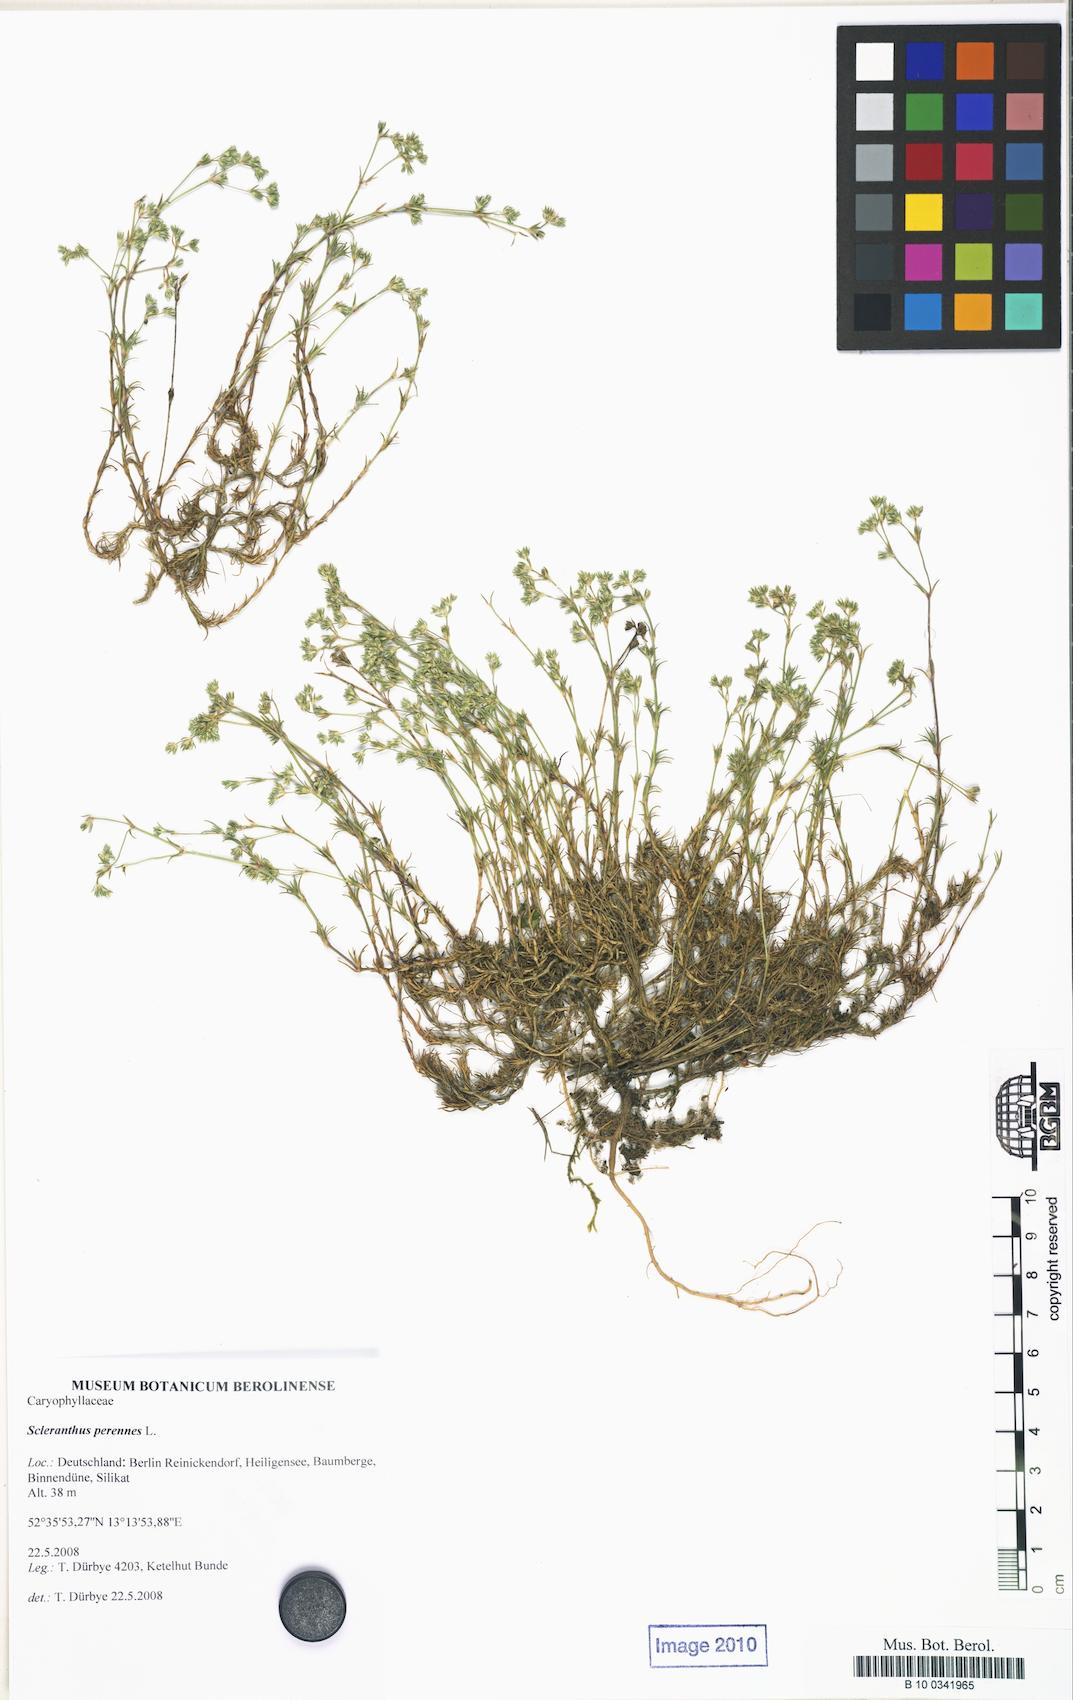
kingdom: Plantae
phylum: Tracheophyta
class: Magnoliopsida
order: Caryophyllales
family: Caryophyllaceae
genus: Scleranthus
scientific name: Scleranthus perennis
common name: Perennial knawel
